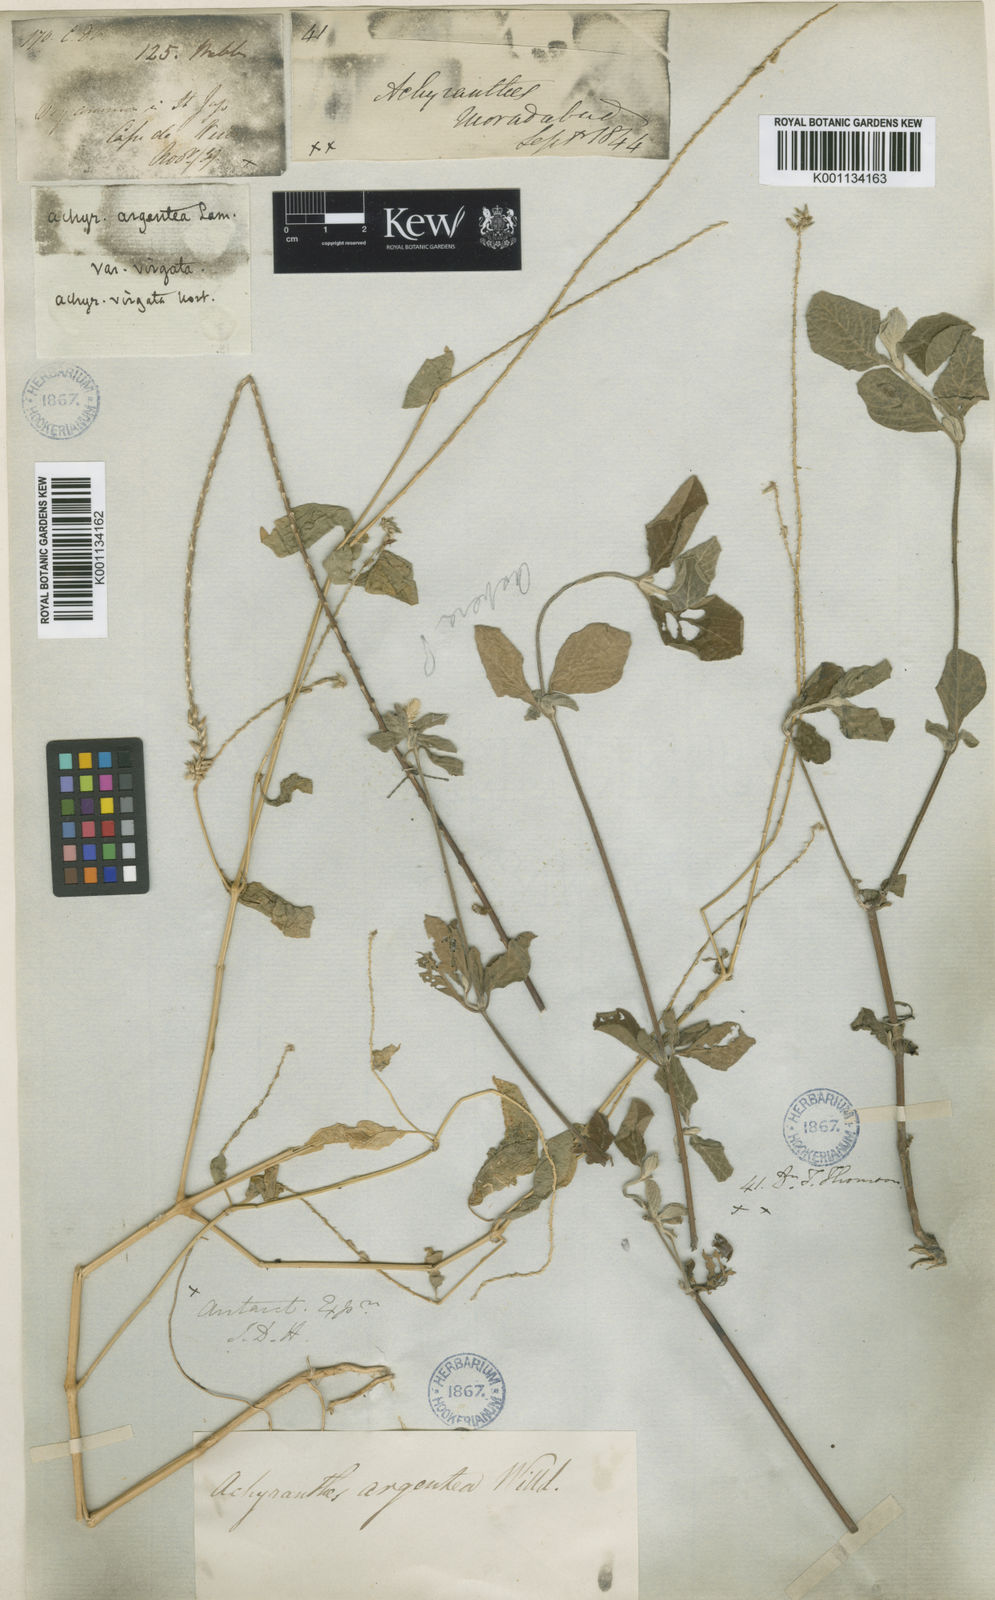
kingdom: Plantae
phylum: Tracheophyta
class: Magnoliopsida
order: Caryophyllales
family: Amaranthaceae
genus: Achyranthes
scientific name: Achyranthes
